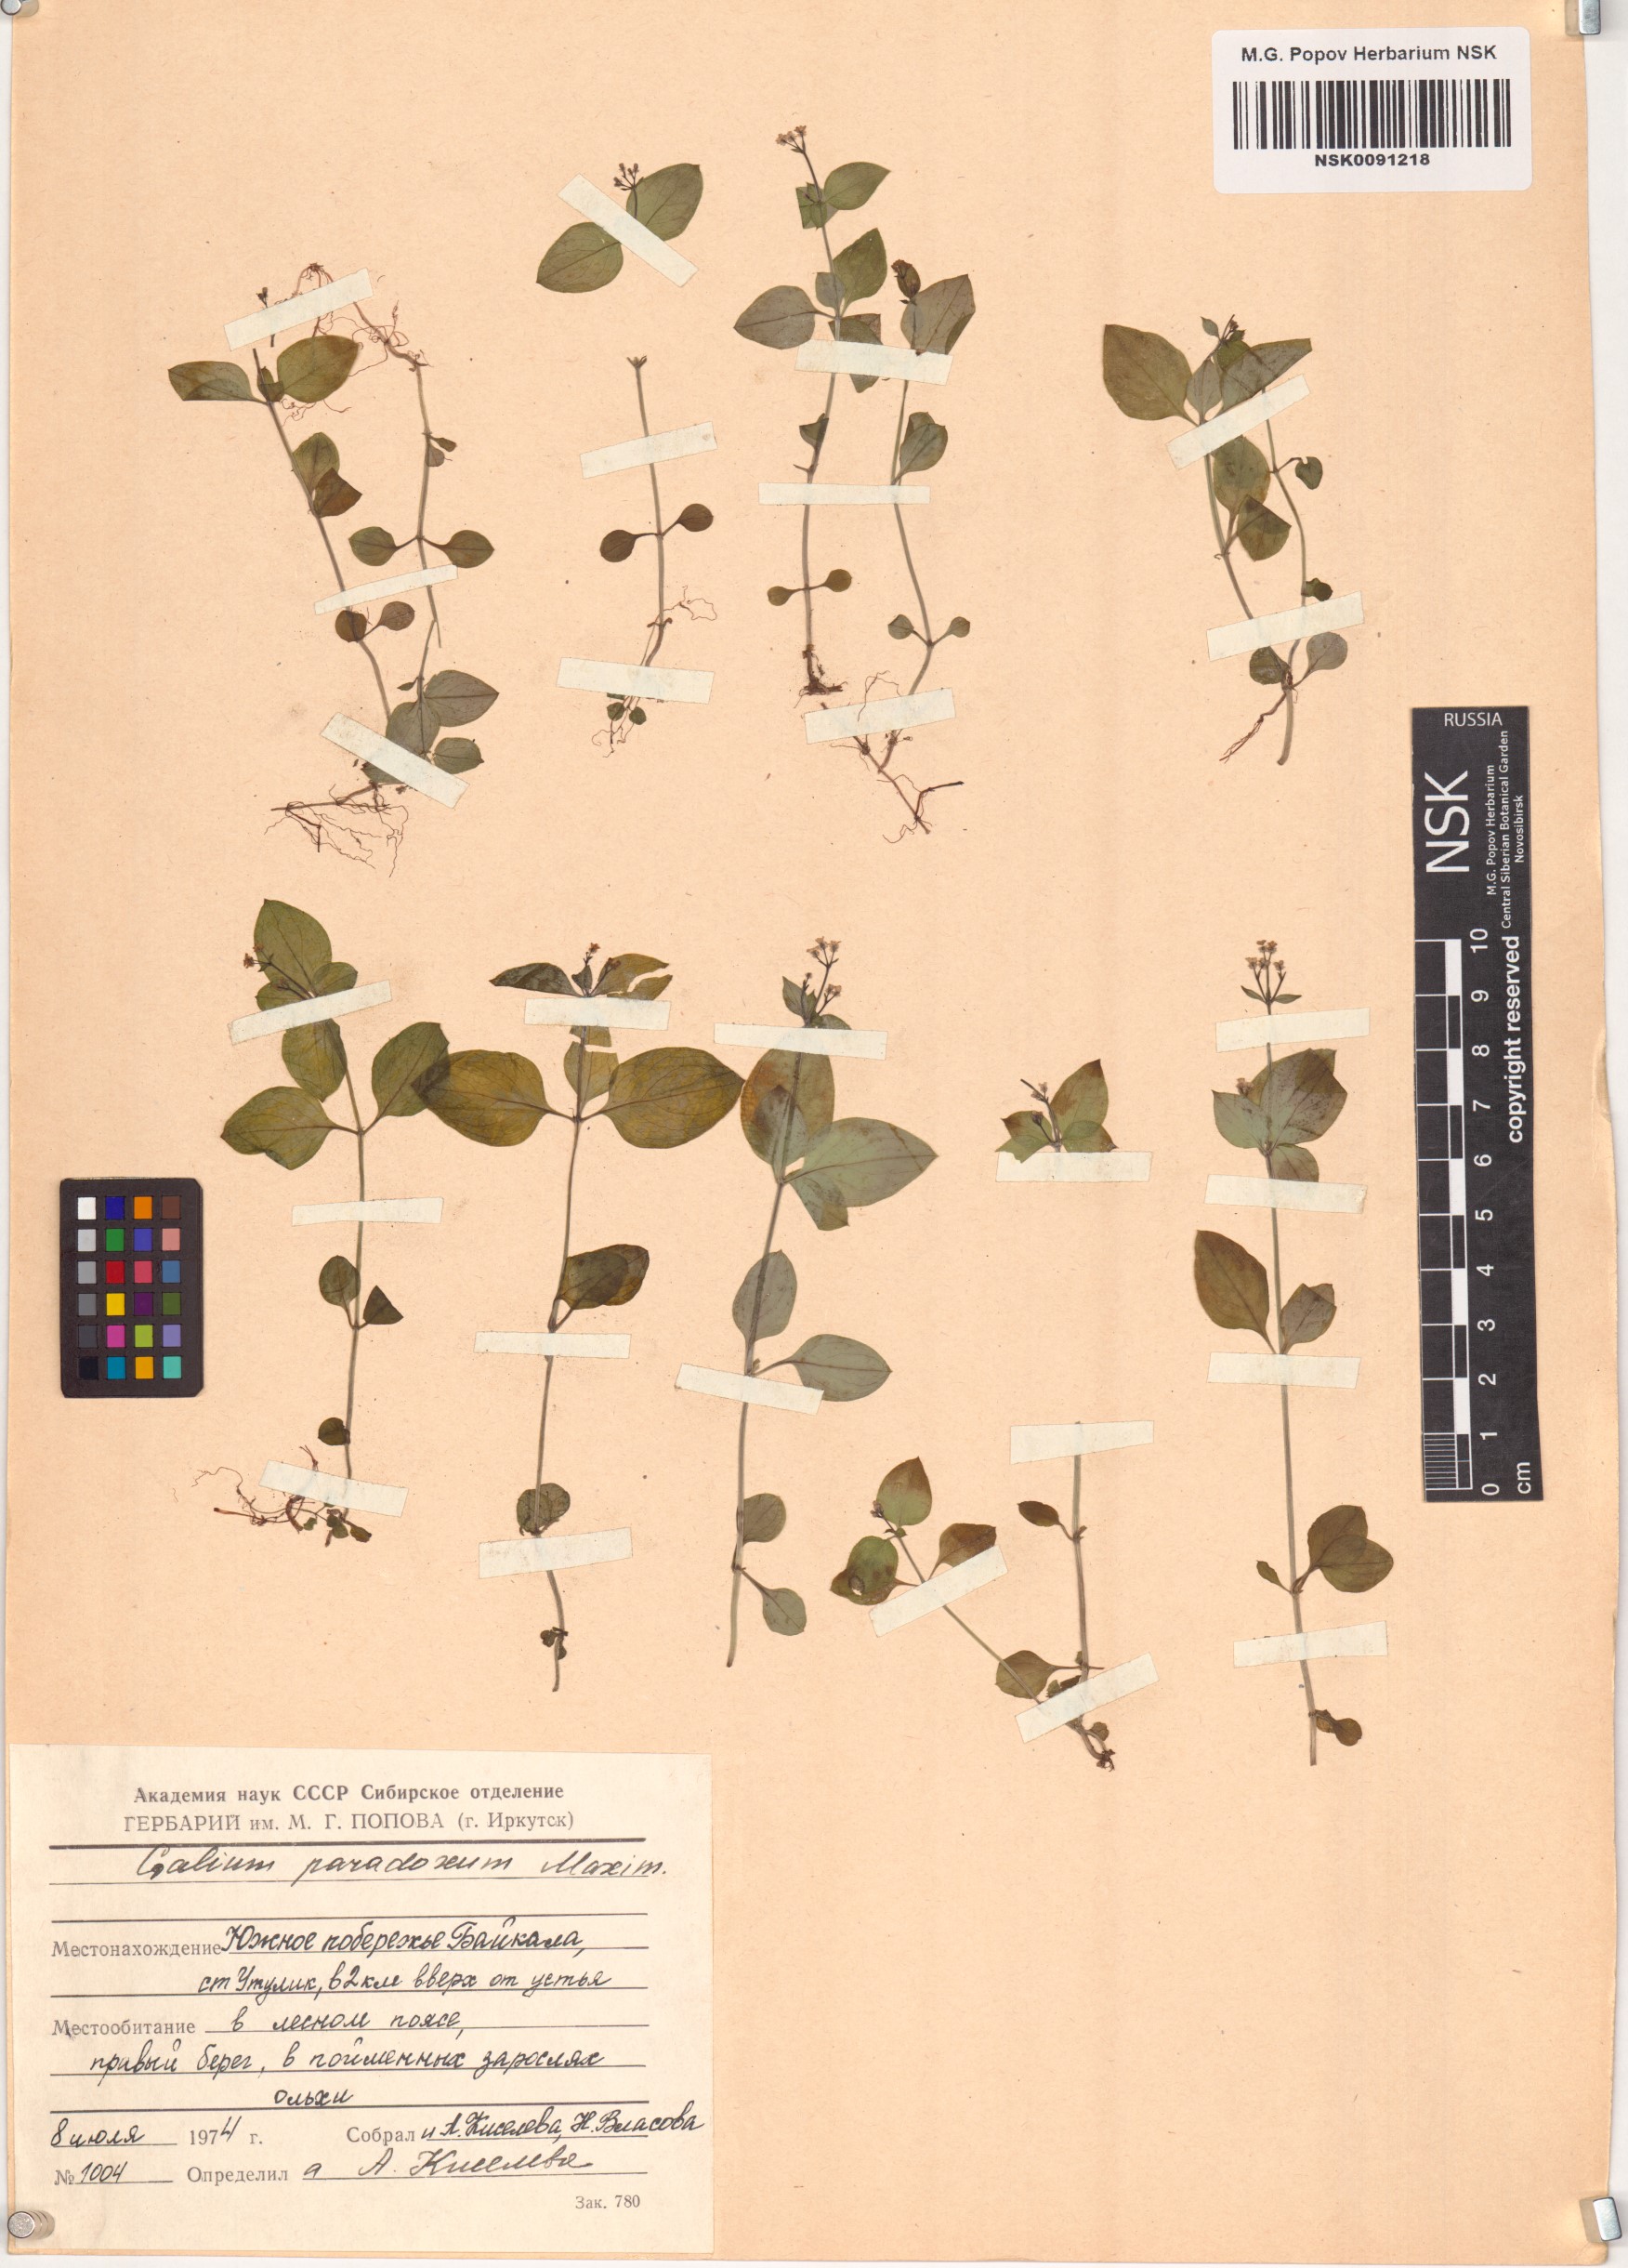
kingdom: Plantae
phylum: Tracheophyta
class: Magnoliopsida
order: Gentianales
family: Rubiaceae
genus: Pseudogalium
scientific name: Pseudogalium paradoxum
